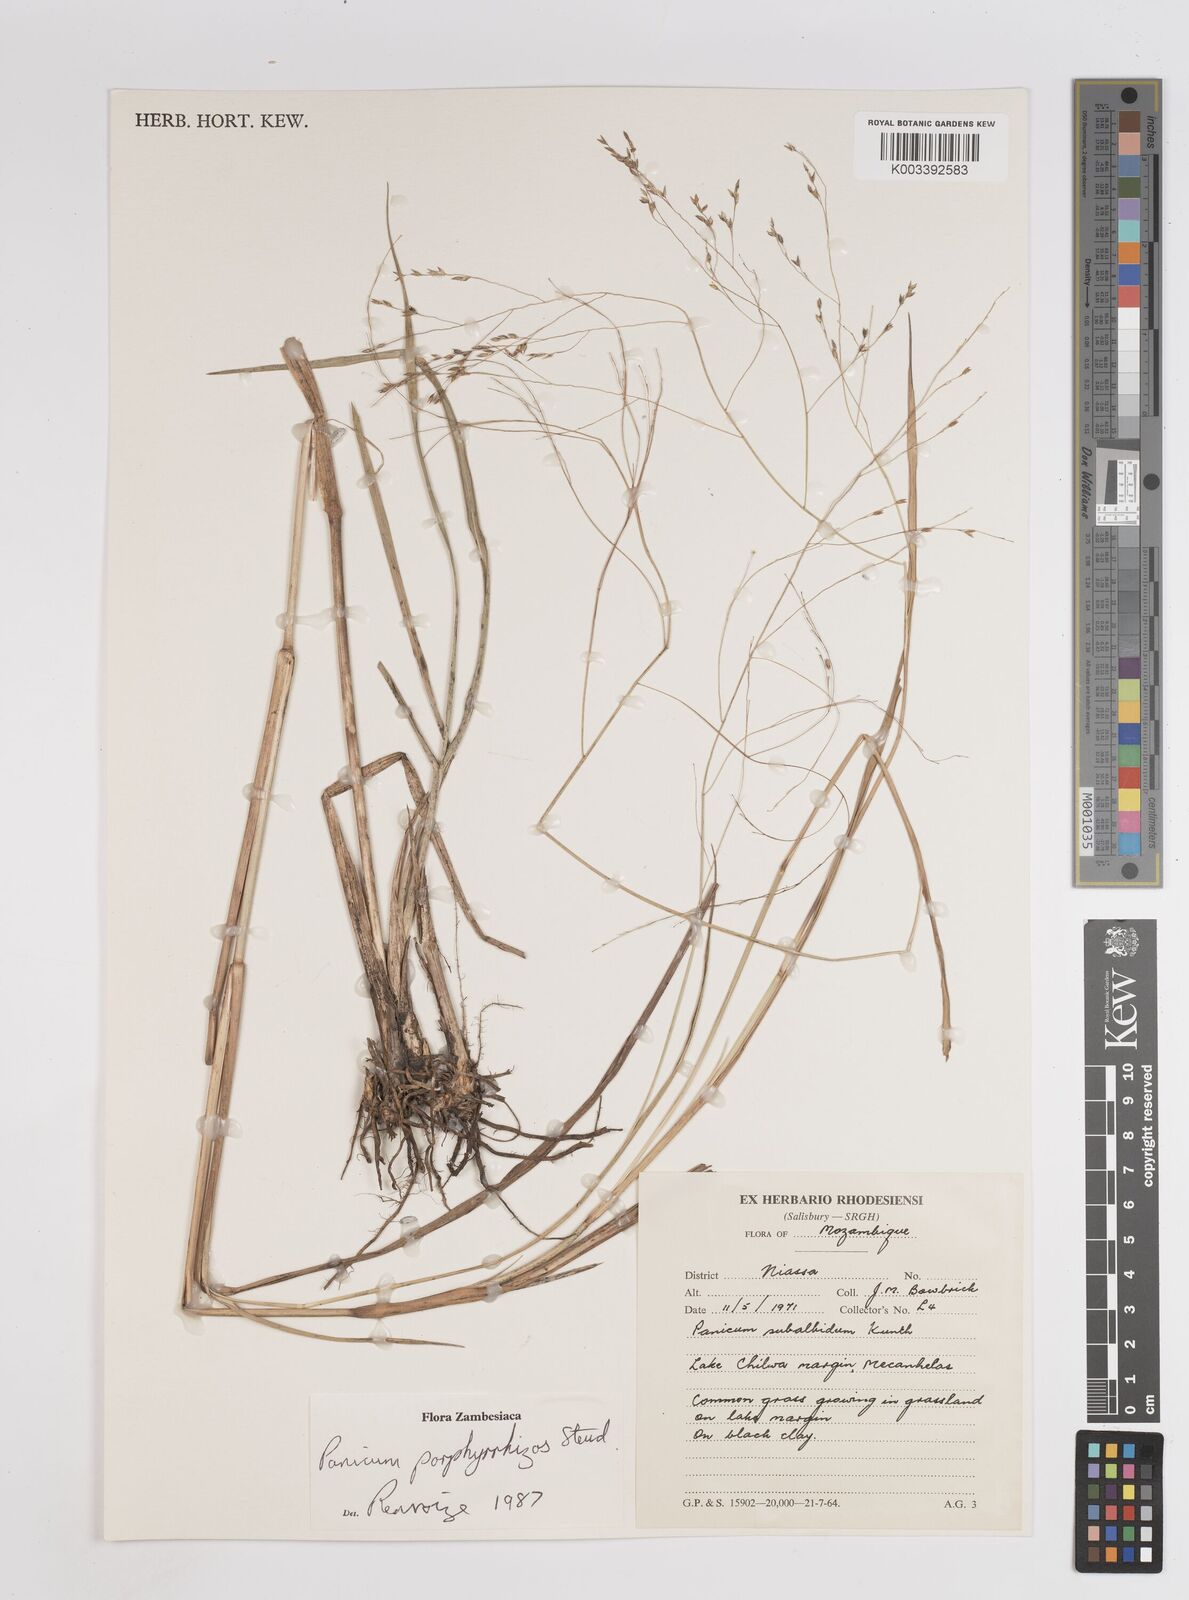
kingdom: Plantae
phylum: Tracheophyta
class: Liliopsida
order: Poales
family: Poaceae
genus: Panicum
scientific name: Panicum porphyrrhizos
